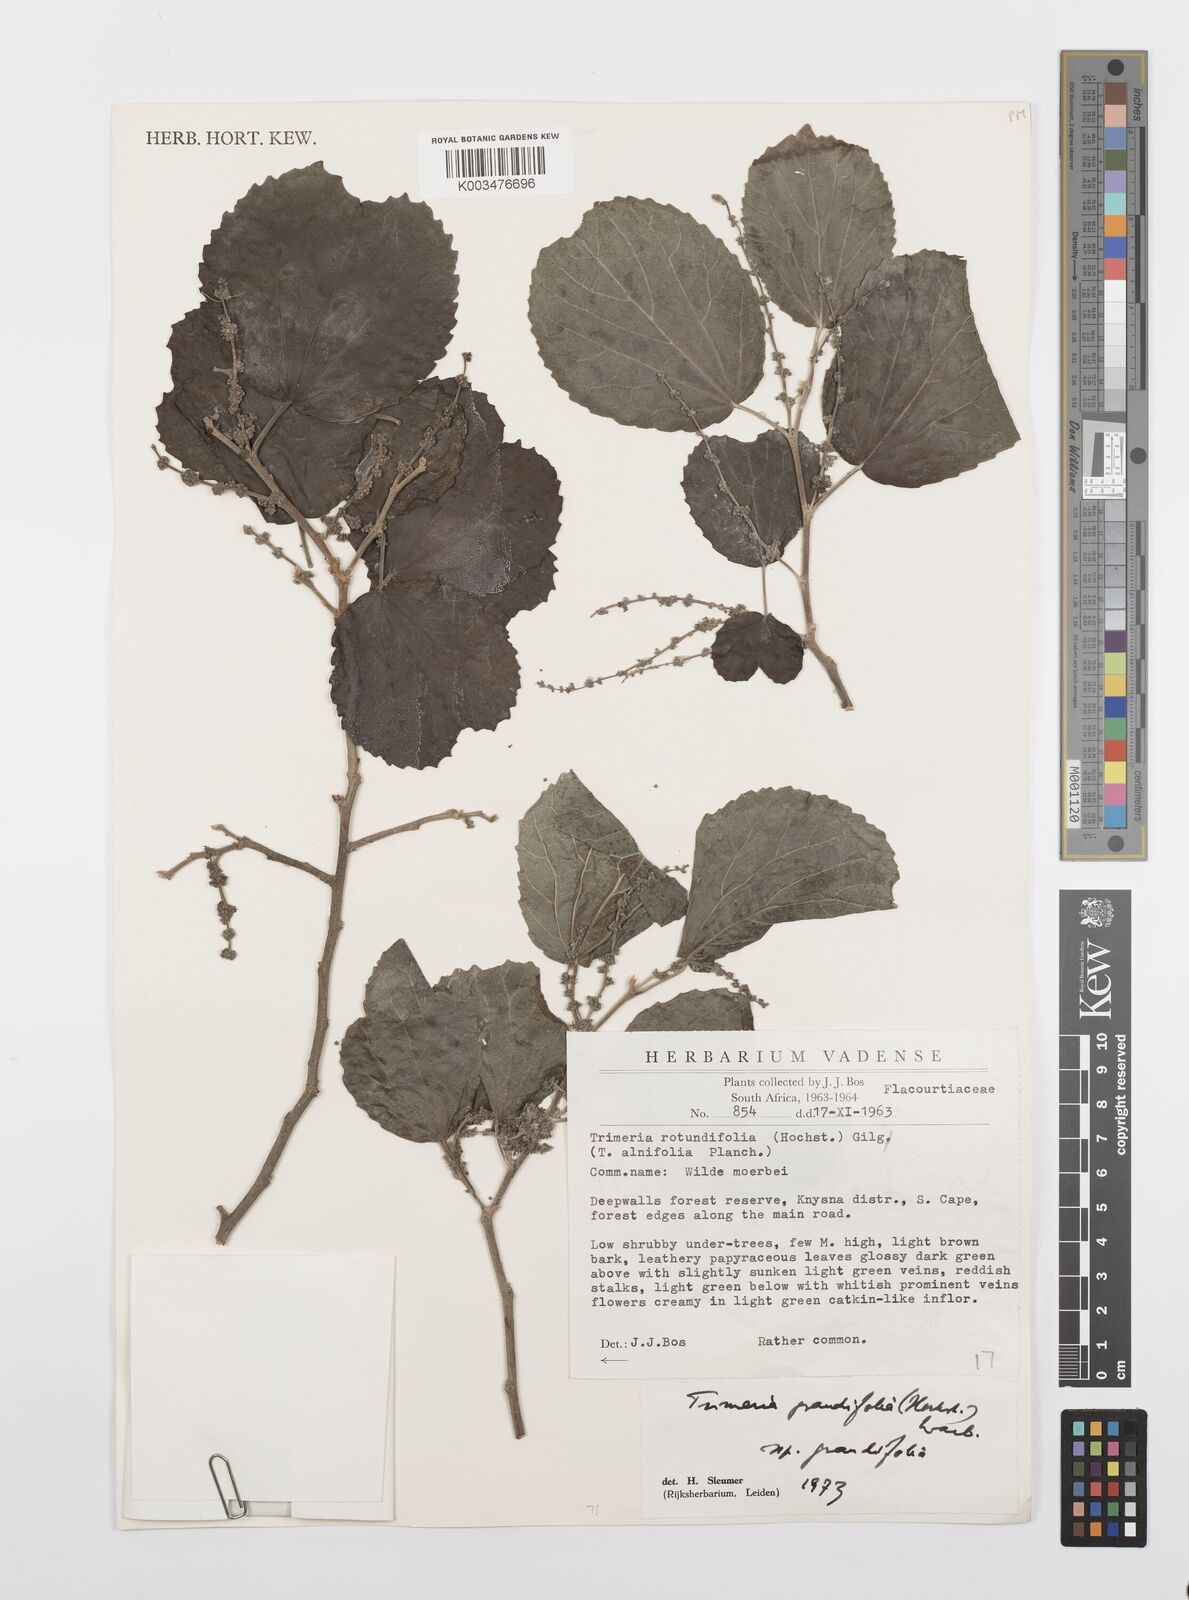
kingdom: Plantae
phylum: Tracheophyta
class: Magnoliopsida
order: Malpighiales
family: Salicaceae
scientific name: Salicaceae
